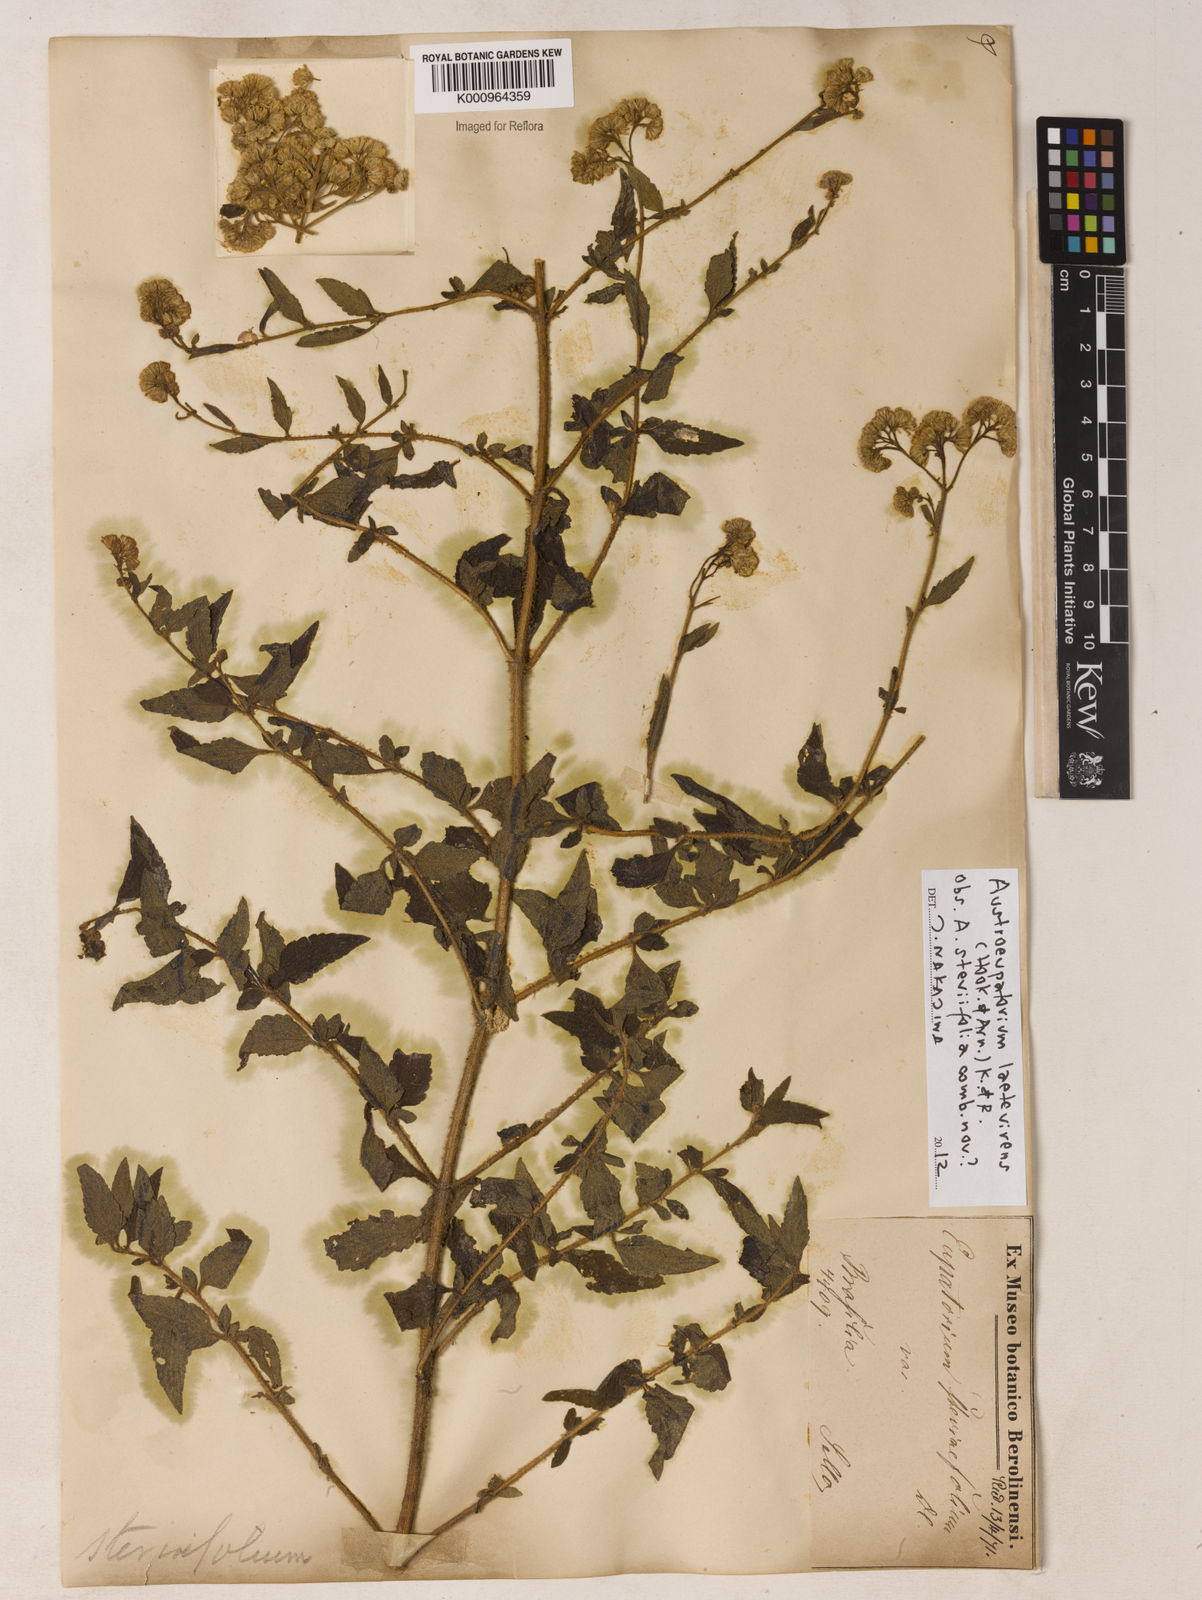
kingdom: Plantae
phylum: Tracheophyta
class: Magnoliopsida
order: Asterales
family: Asteraceae
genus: Austroeupatorium
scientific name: Austroeupatorium laetevirens
